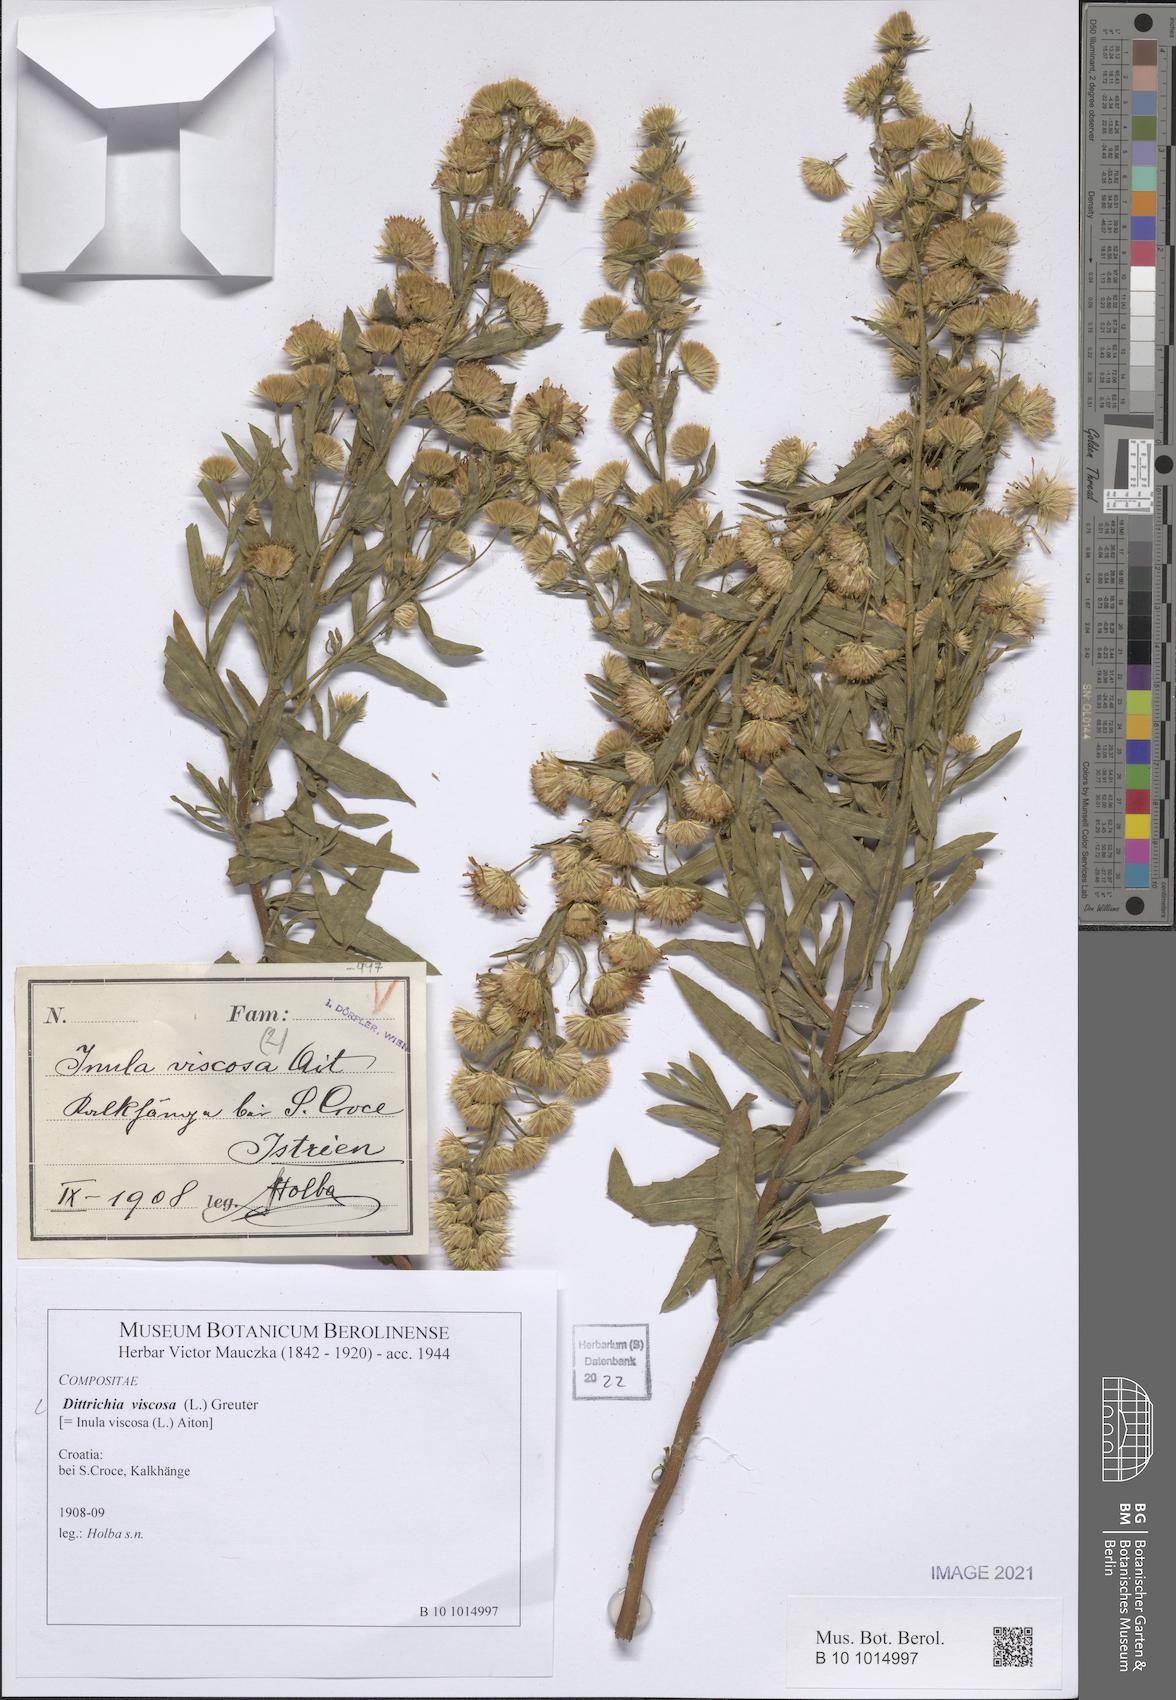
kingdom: Plantae
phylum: Tracheophyta
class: Magnoliopsida
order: Asterales
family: Asteraceae
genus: Dittrichia
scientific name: Dittrichia viscosa
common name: Woody fleabane
